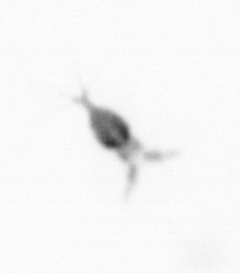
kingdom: Animalia
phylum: Arthropoda
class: Copepoda
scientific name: Copepoda
